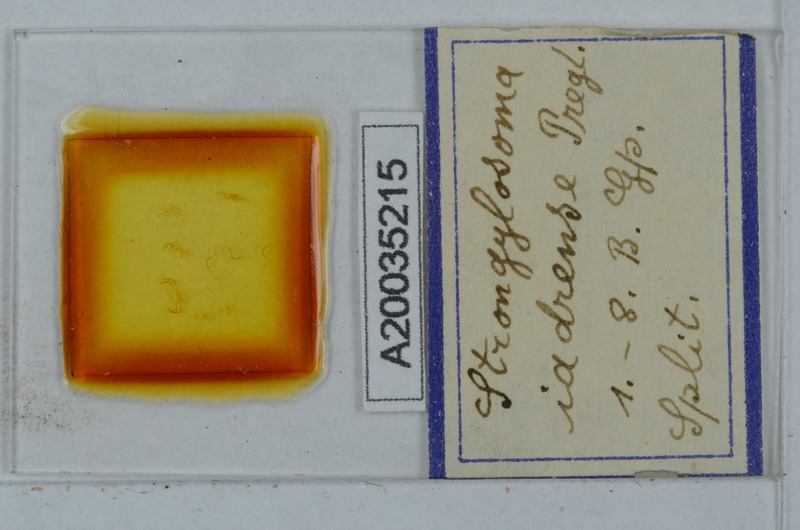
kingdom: Animalia
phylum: Arthropoda
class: Diplopoda
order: Polydesmida
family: Paradoxosomatidae
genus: Stosatea
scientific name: Stosatea iadrensis
